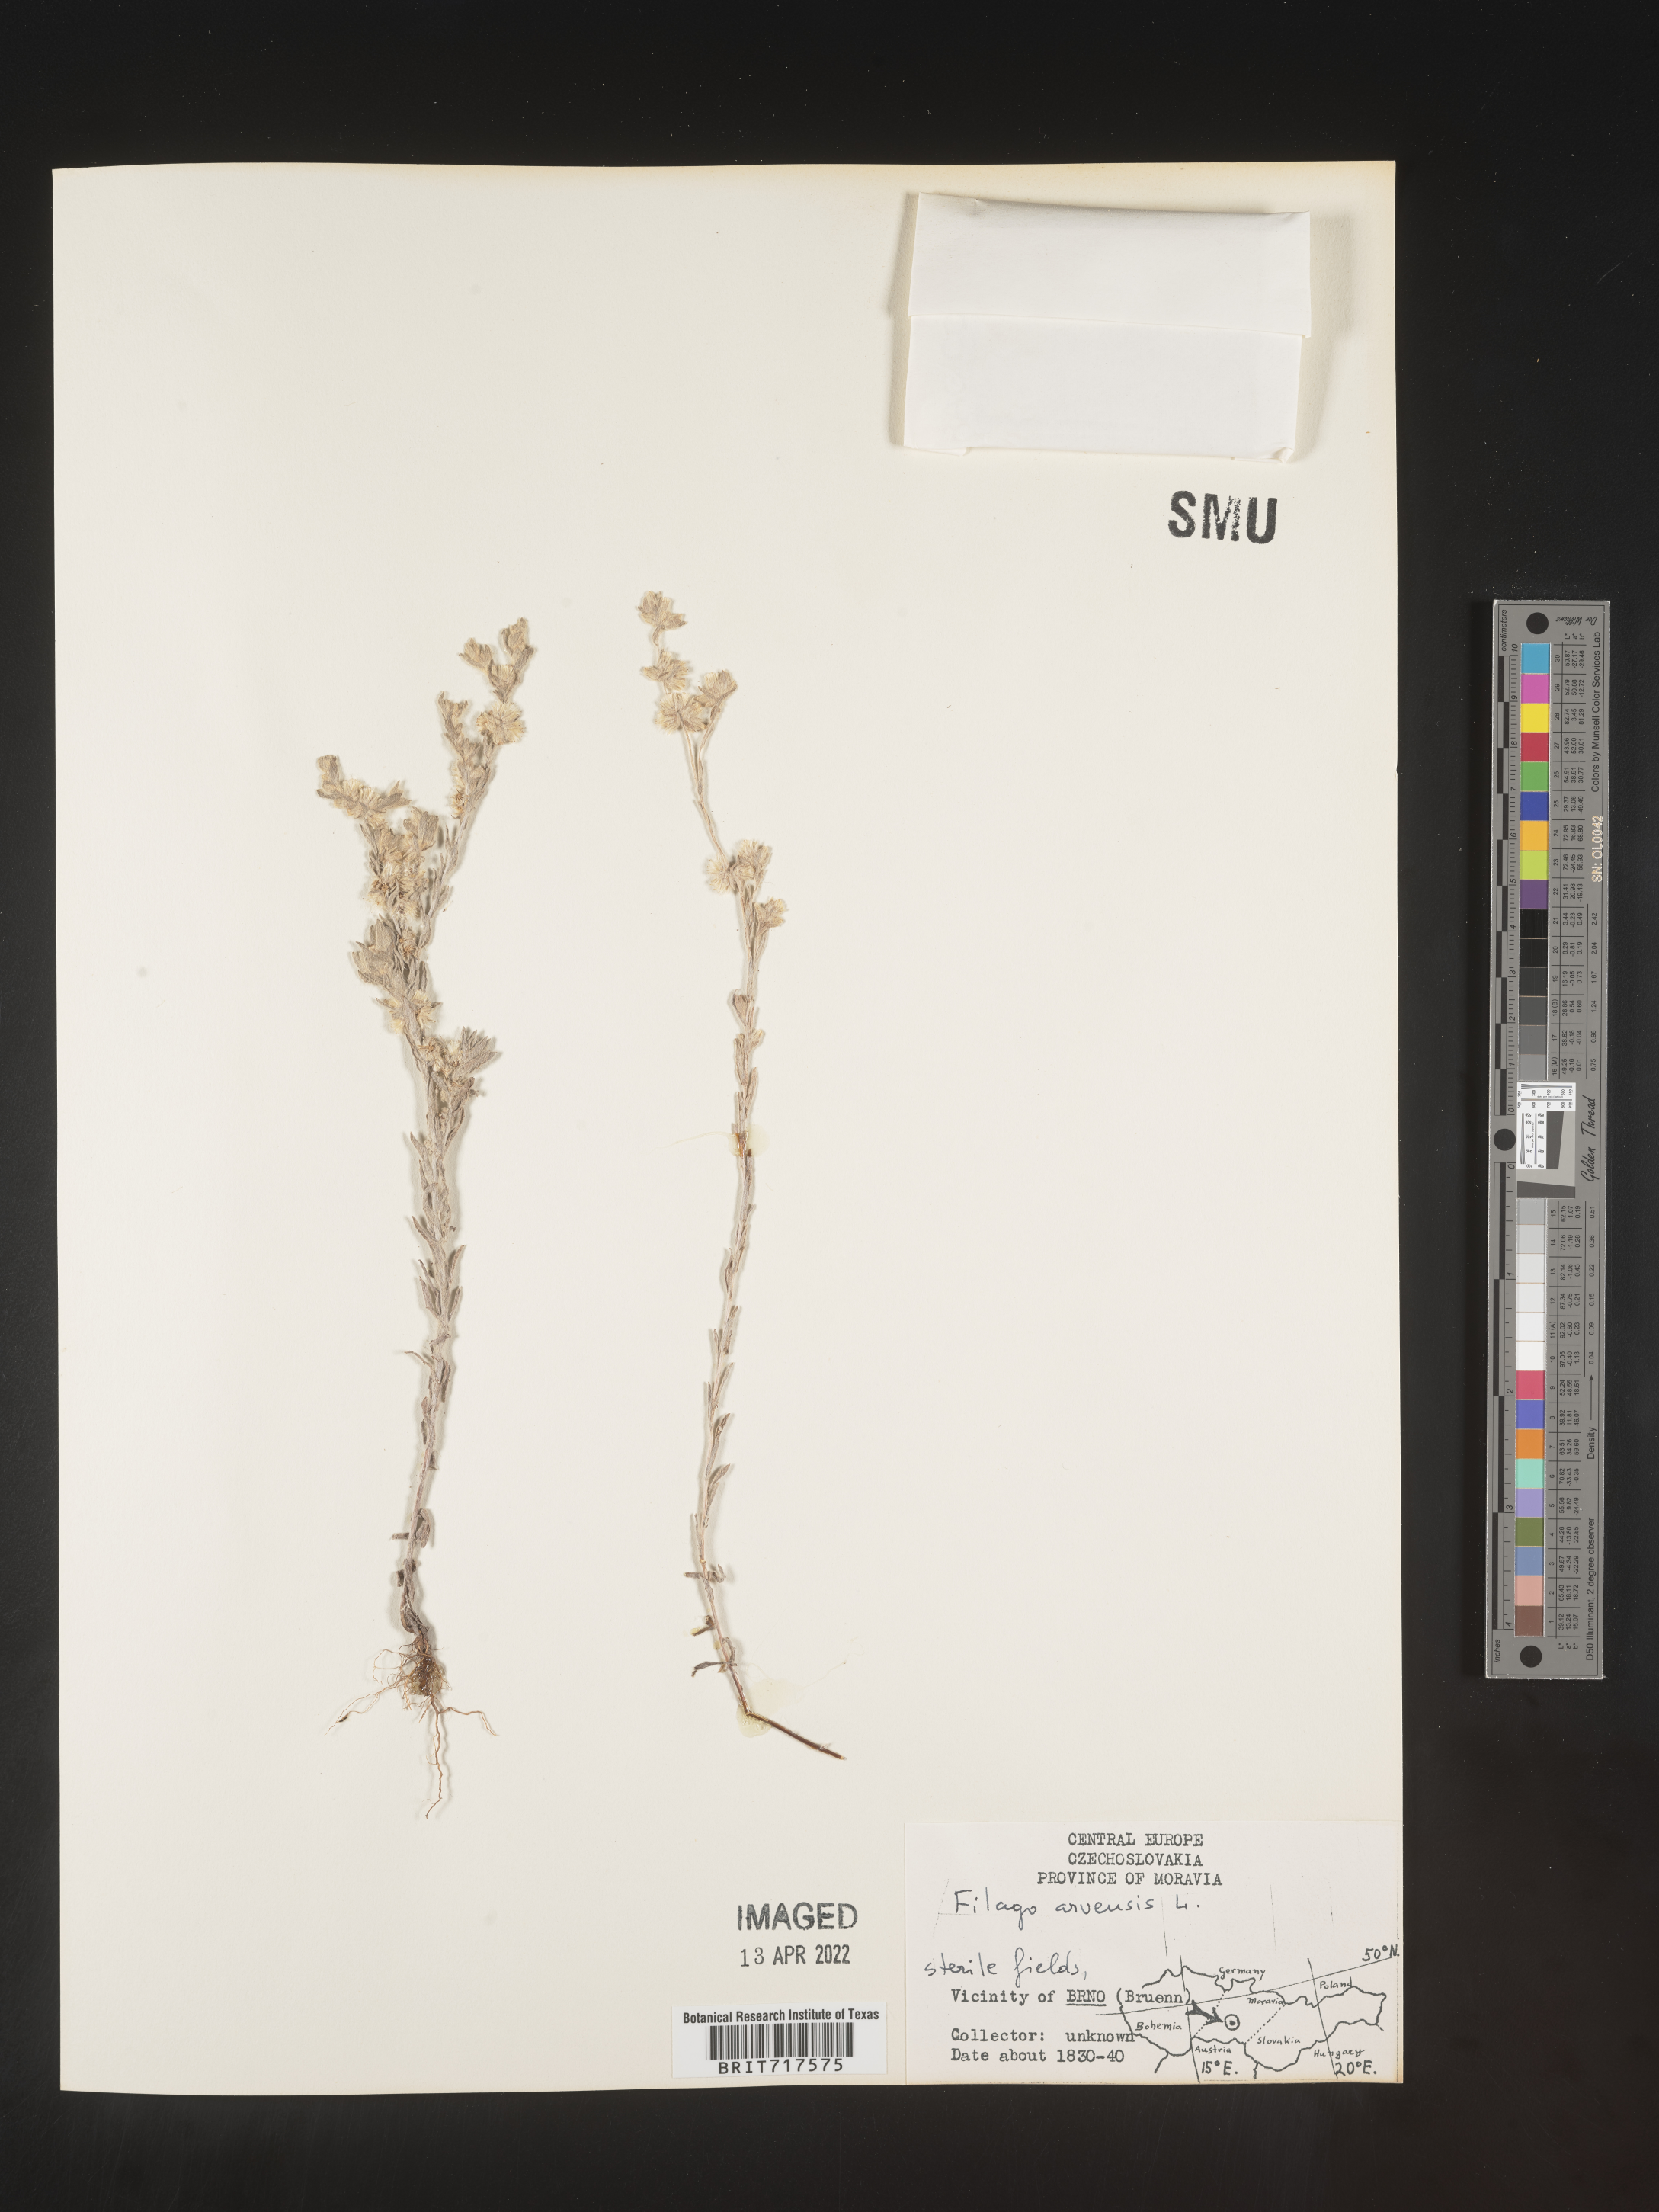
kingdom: Plantae
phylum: Tracheophyta
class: Magnoliopsida
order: Asterales
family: Asteraceae
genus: Filago
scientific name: Filago
